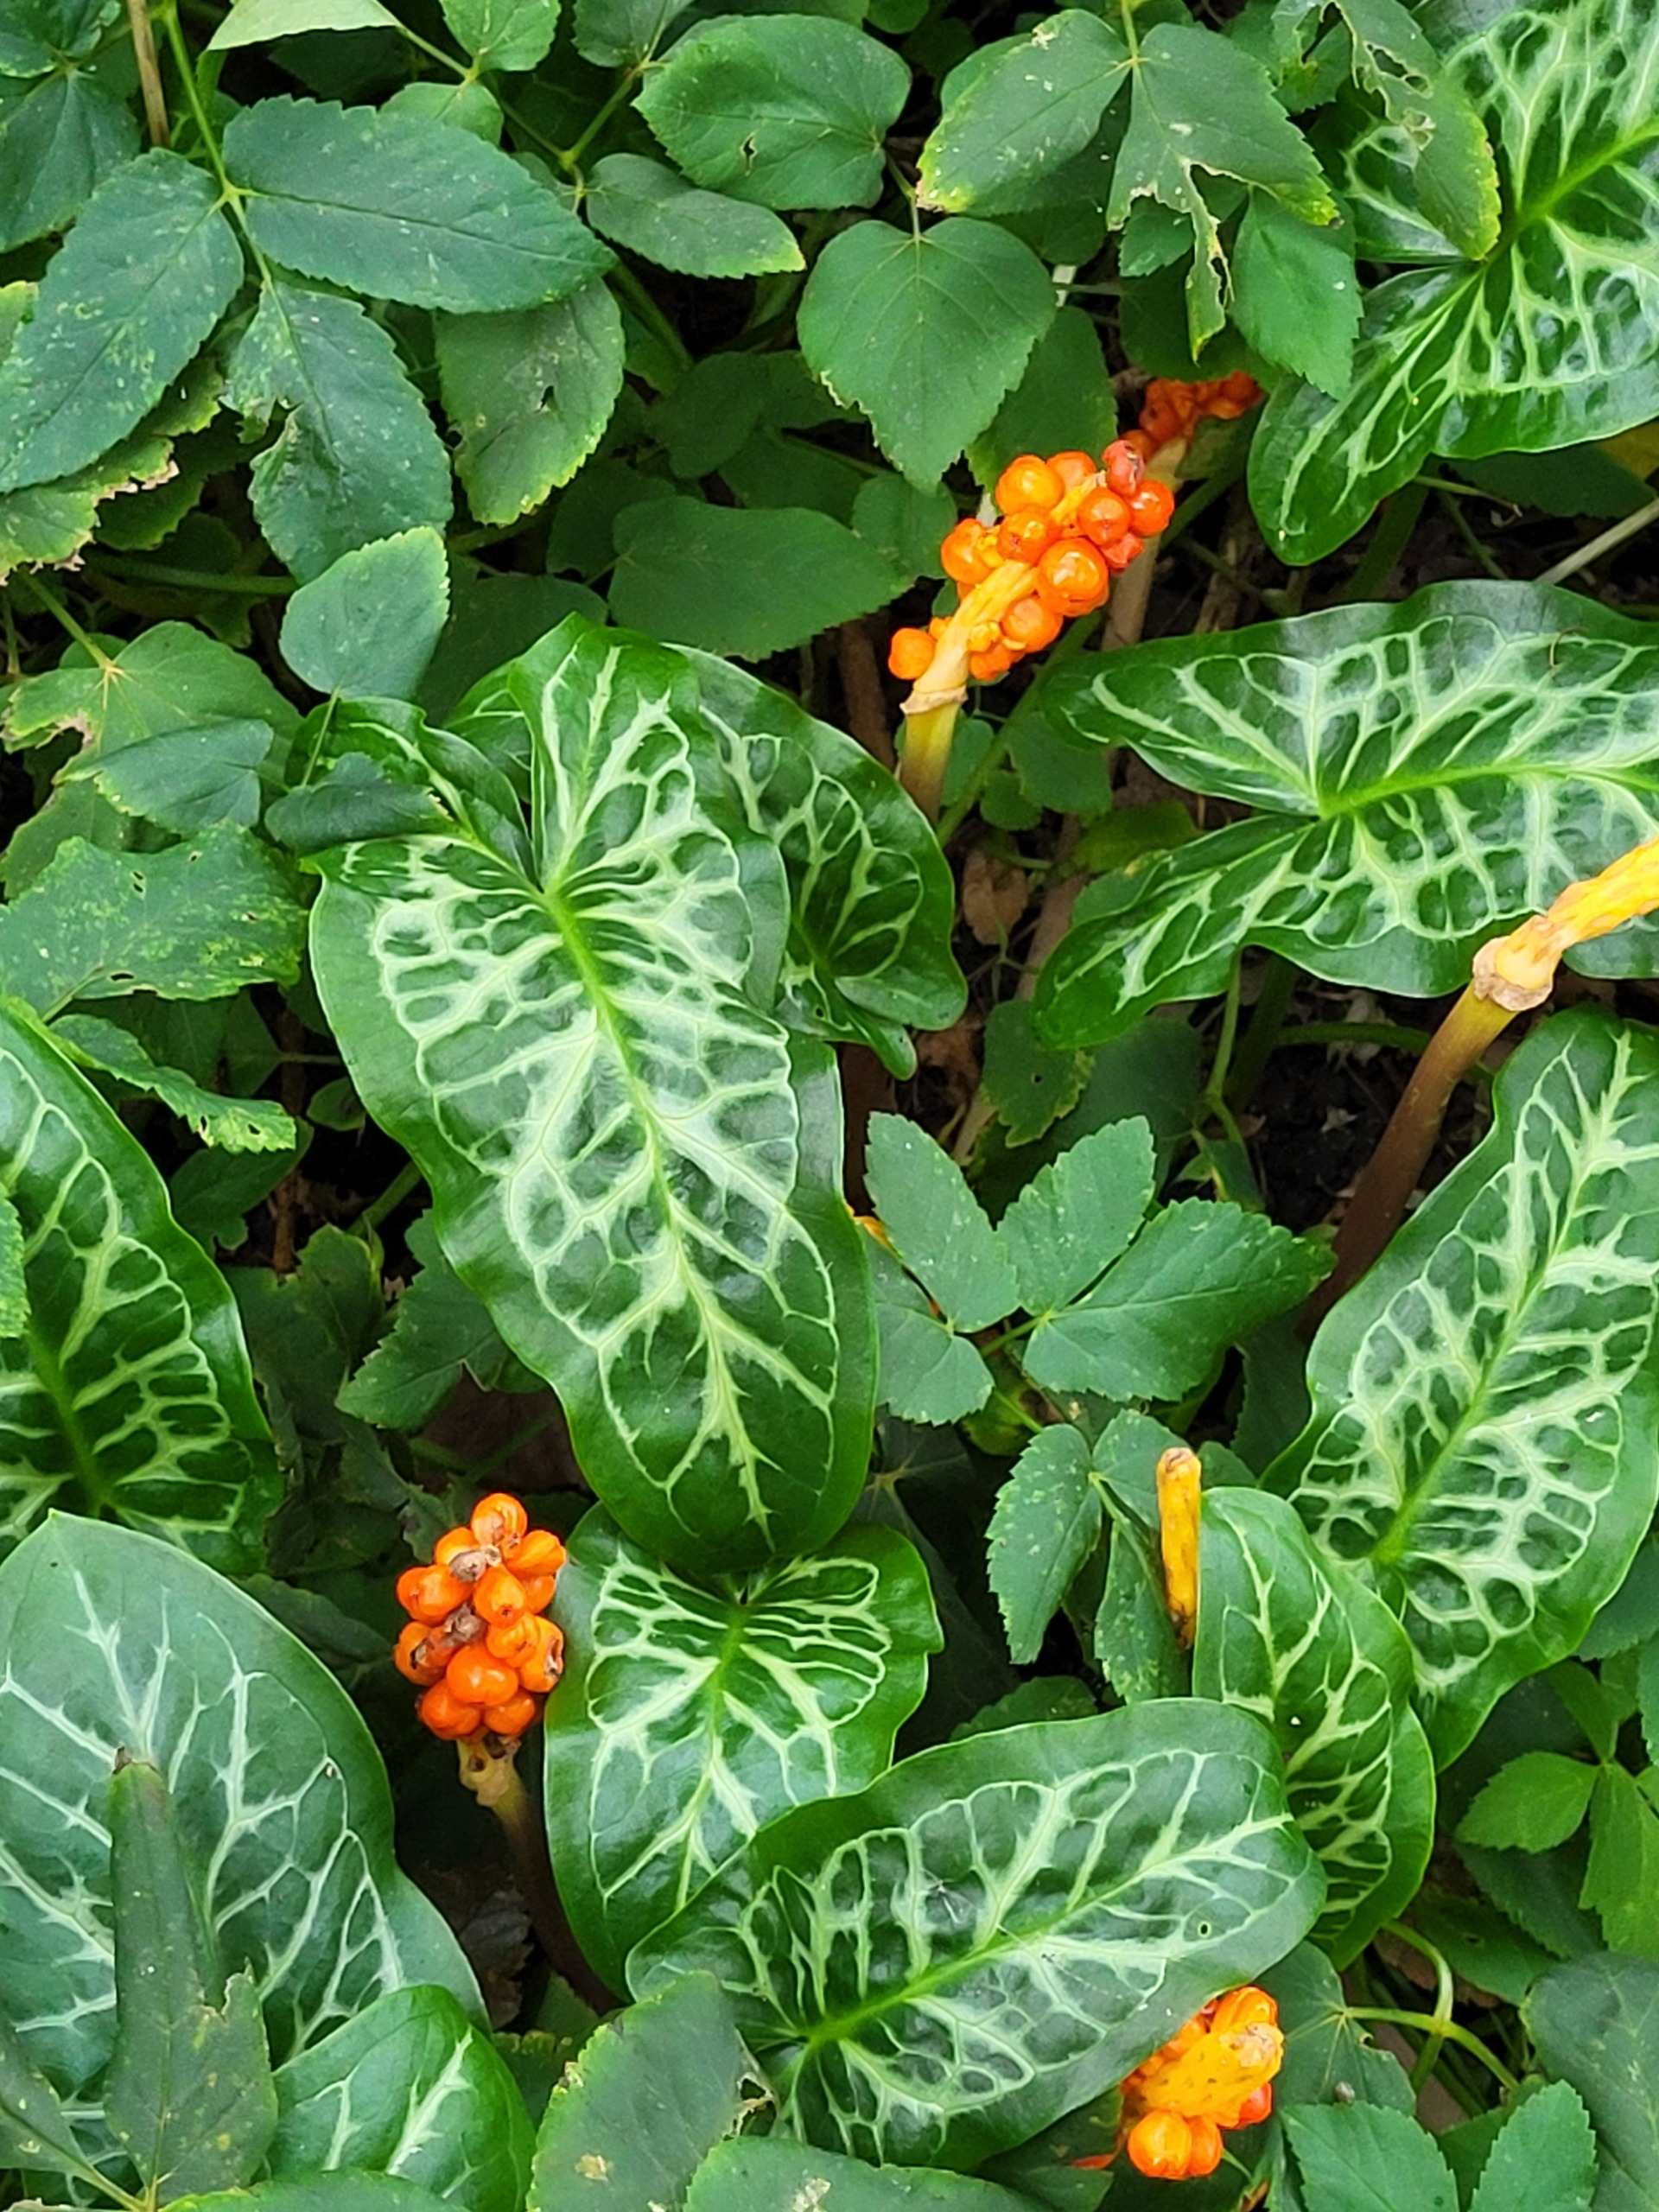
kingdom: Plantae
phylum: Tracheophyta
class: Liliopsida
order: Alismatales
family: Araceae
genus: Arum
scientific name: Arum italicum
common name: Italiensk arum
